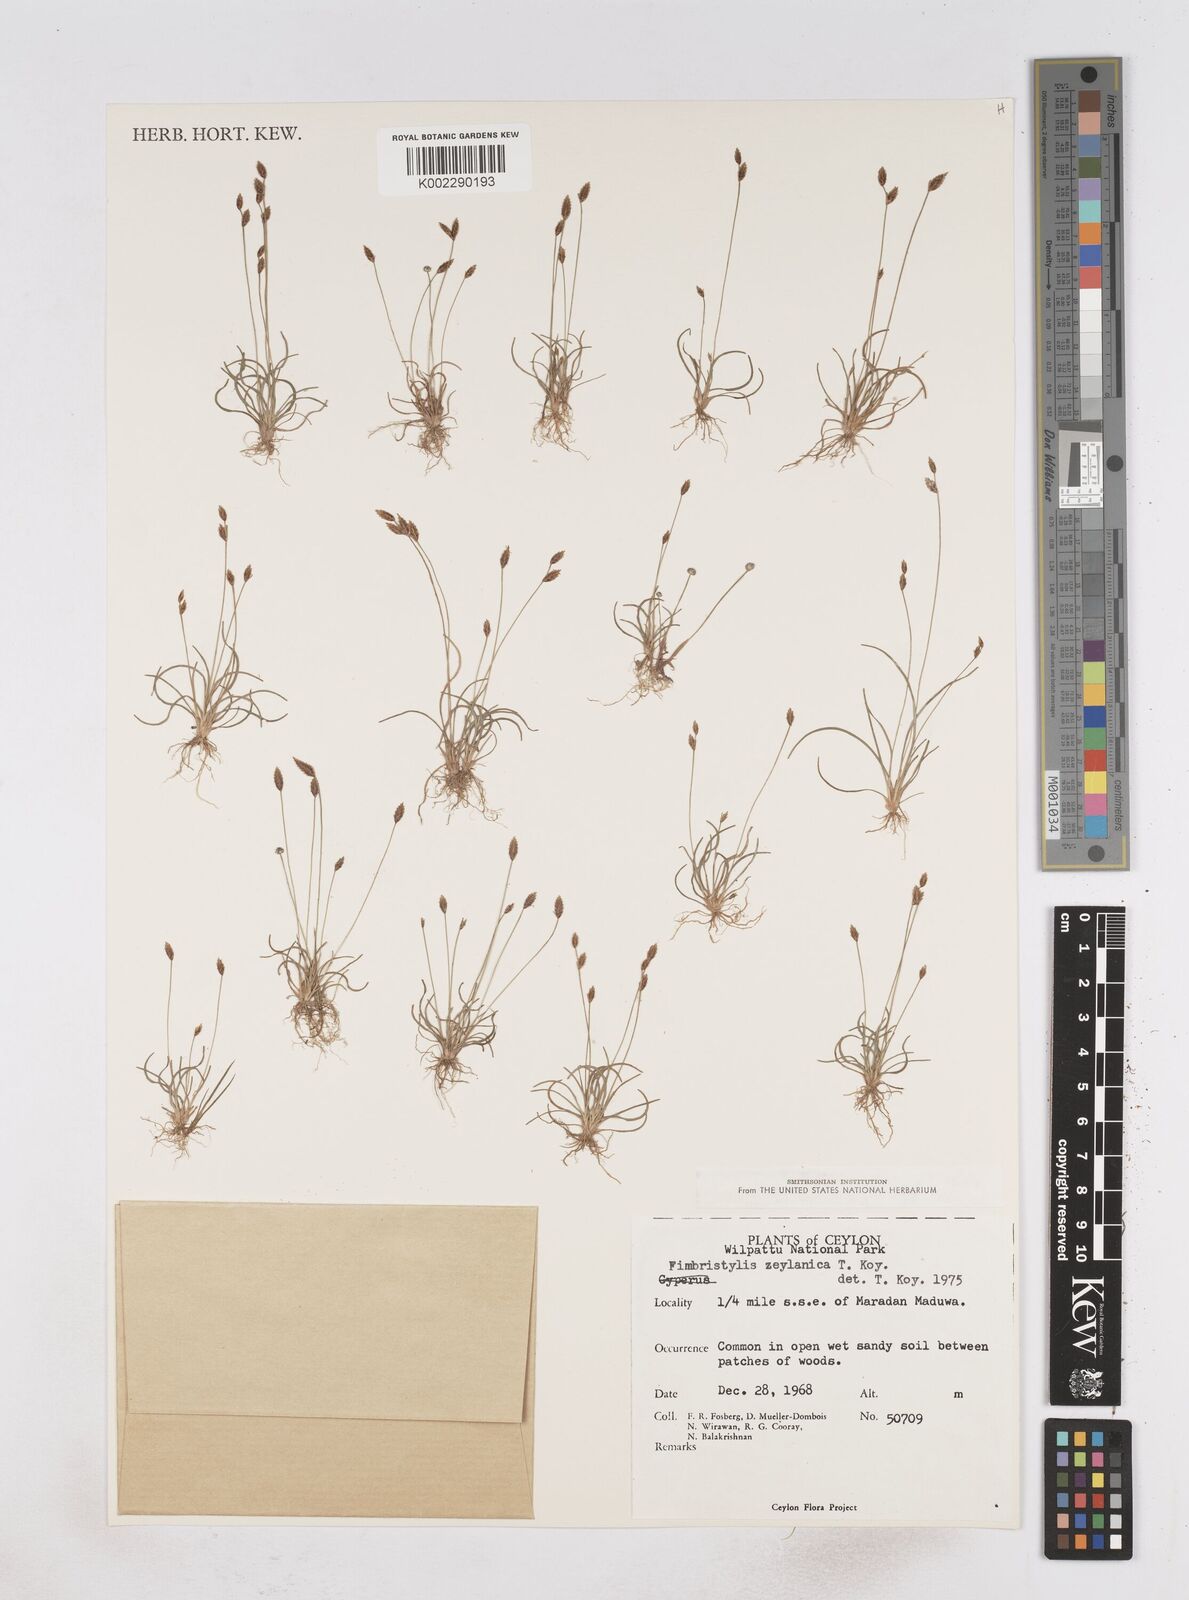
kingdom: Plantae
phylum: Tracheophyta
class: Liliopsida
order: Poales
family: Cyperaceae
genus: Fimbristylis
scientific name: Fimbristylis zeylanica
